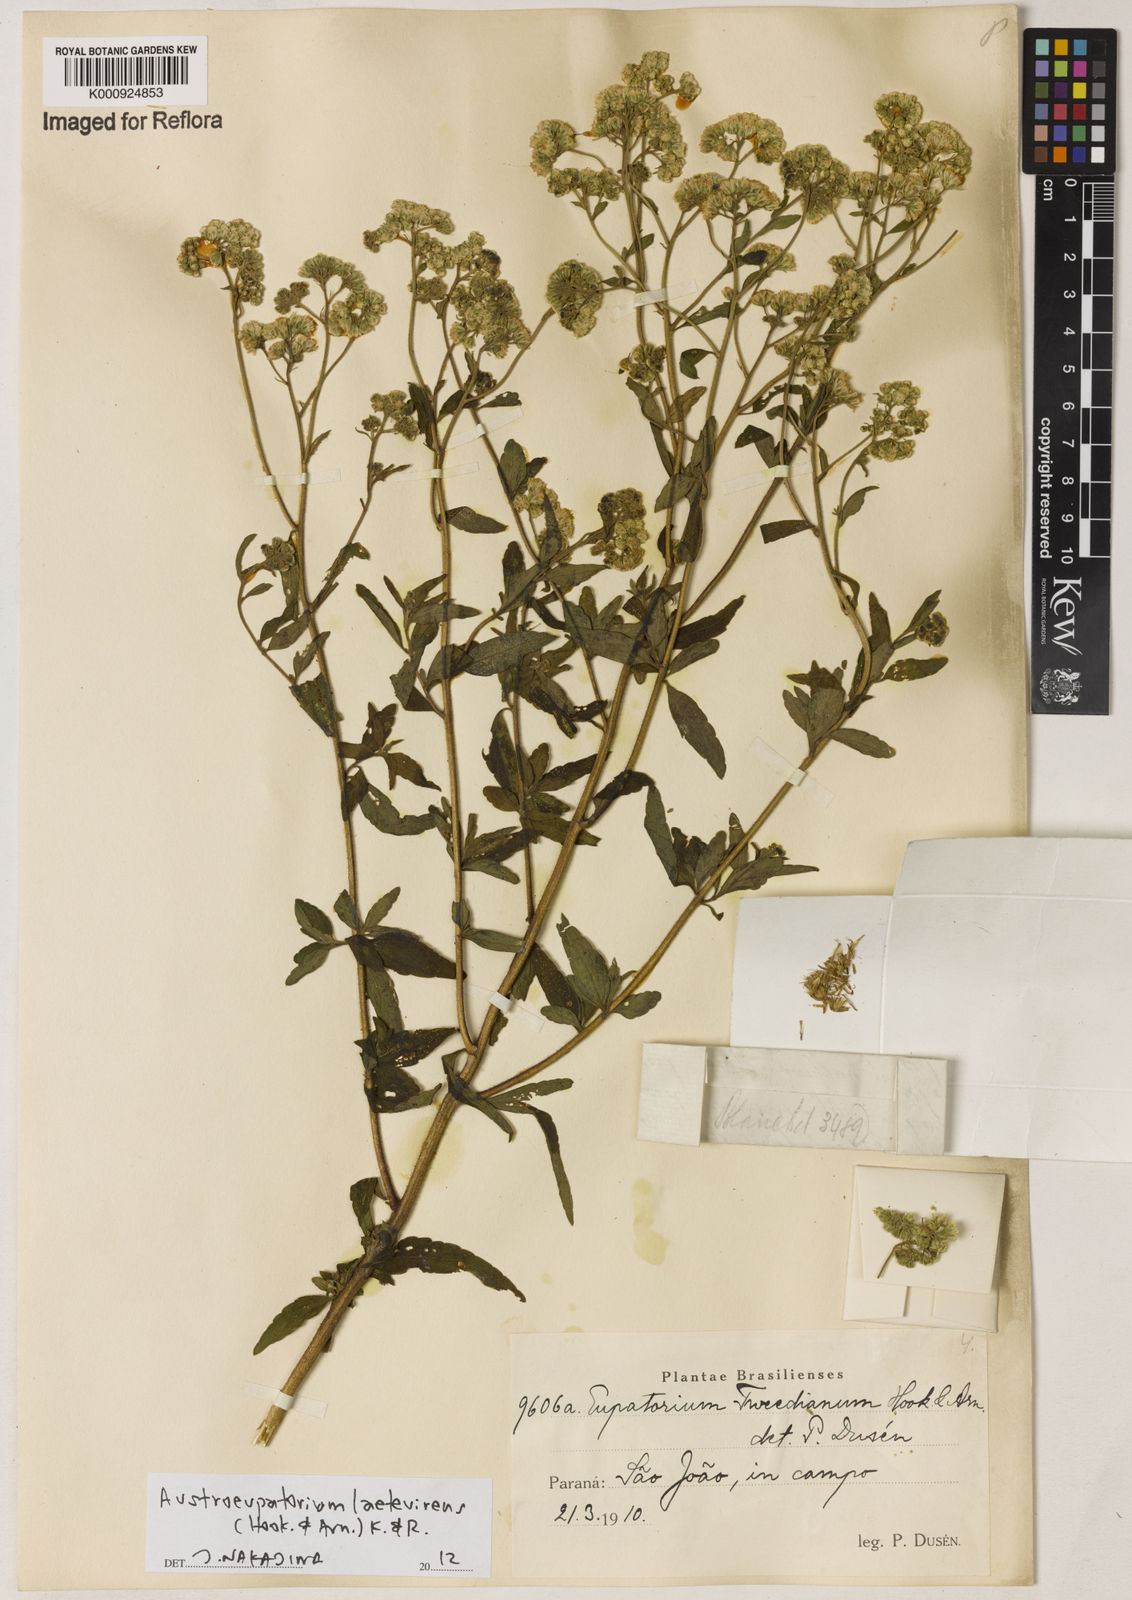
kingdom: Plantae
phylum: Tracheophyta
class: Magnoliopsida
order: Asterales
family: Asteraceae
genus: Austroeupatorium
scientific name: Austroeupatorium laetevirens
